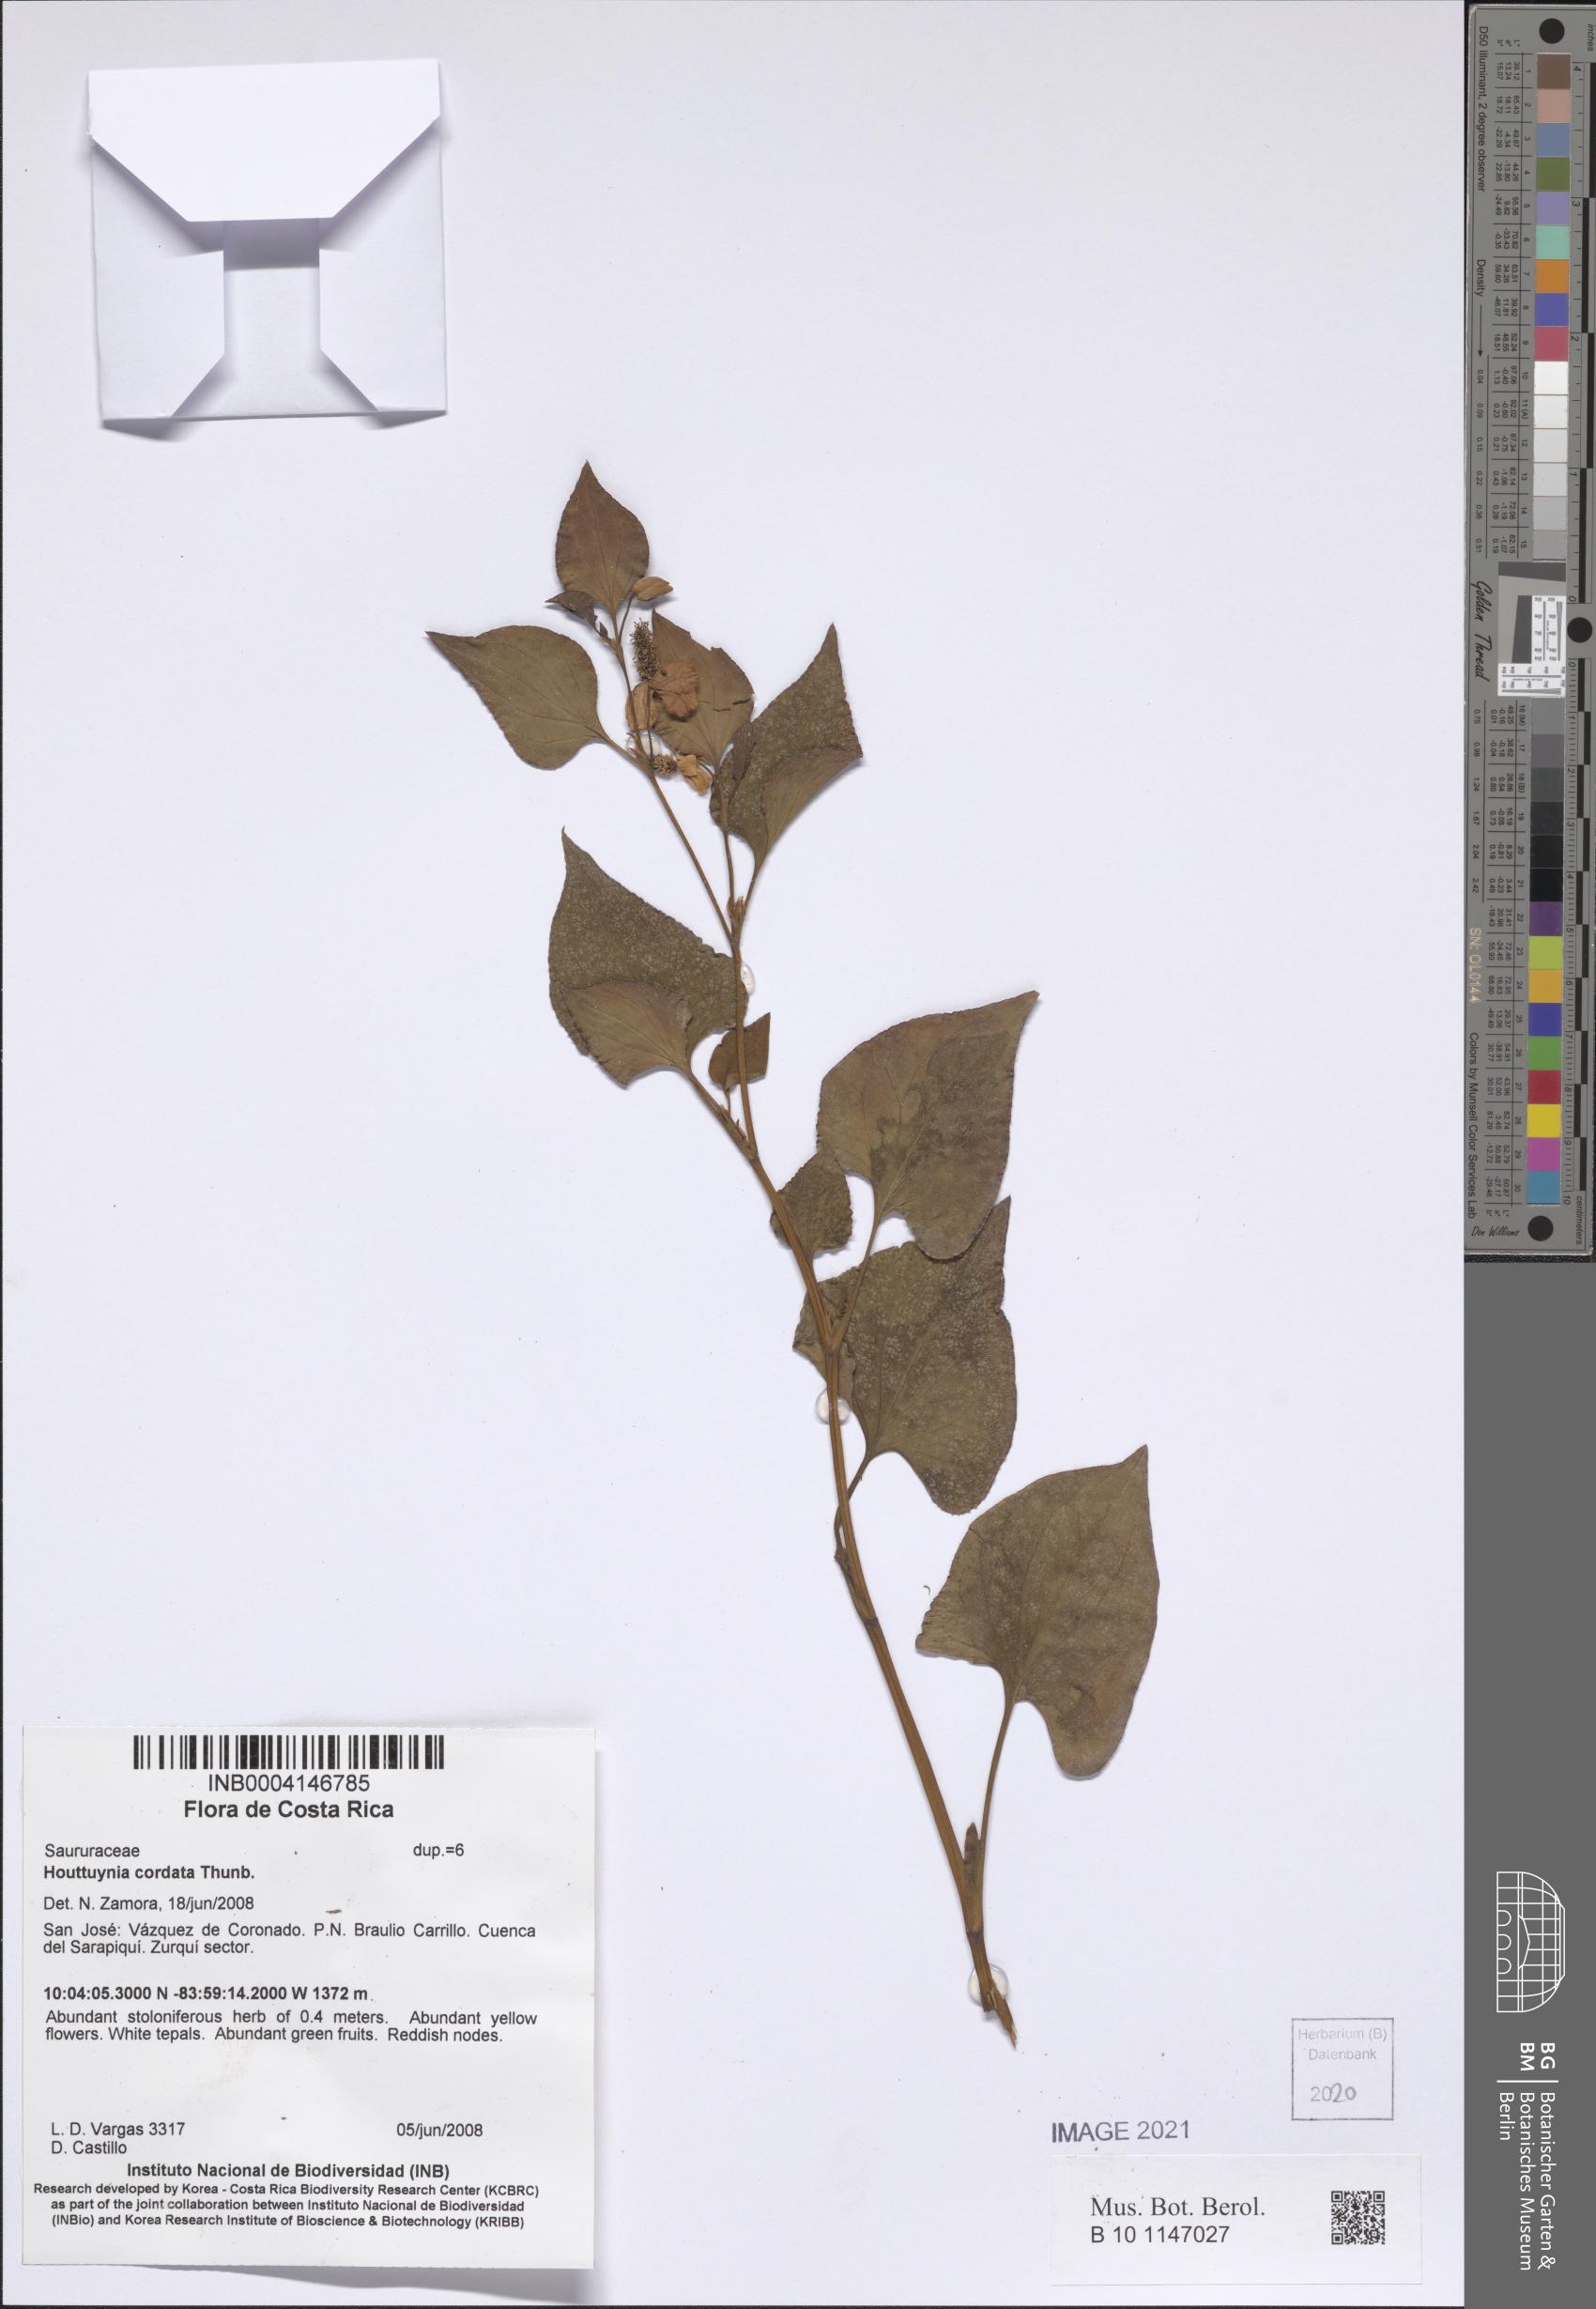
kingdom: Plantae
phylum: Tracheophyta
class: Magnoliopsida
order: Piperales
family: Saururaceae
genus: Houttuynia
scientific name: Houttuynia cordata
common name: Chameleon
